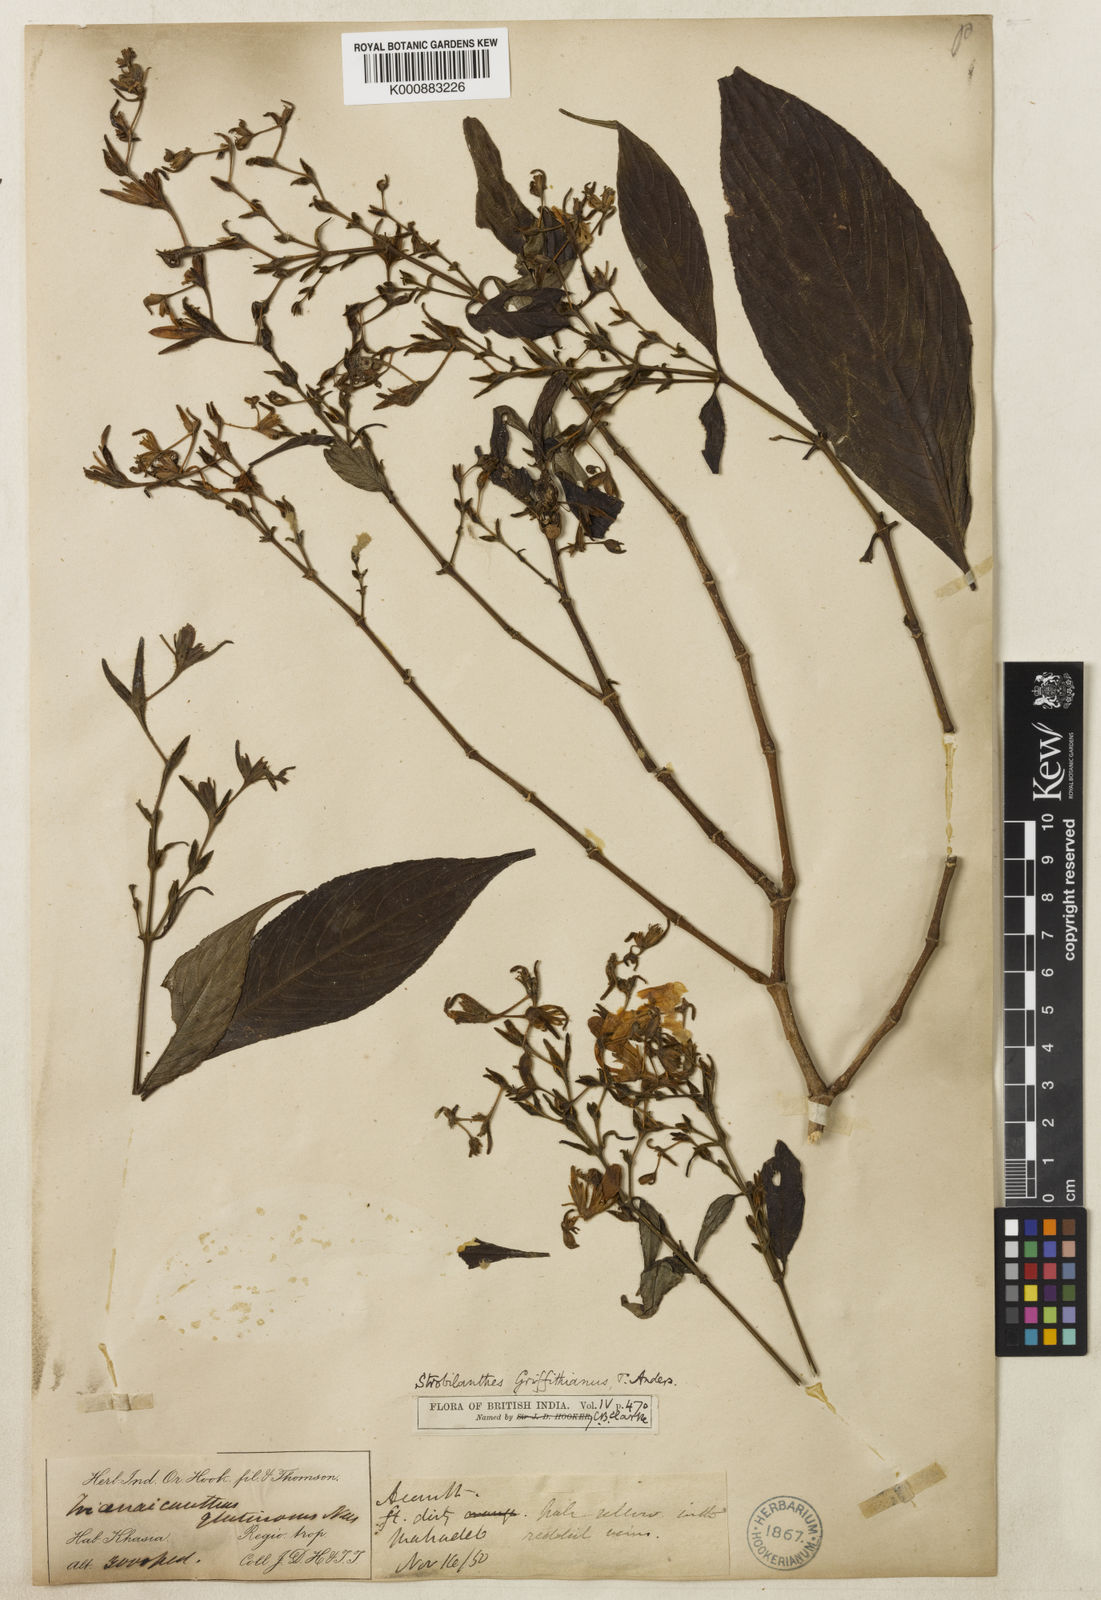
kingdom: Plantae
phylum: Tracheophyta
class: Magnoliopsida
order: Lamiales
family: Acanthaceae
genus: Strobilanthes
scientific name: Strobilanthes cusia
